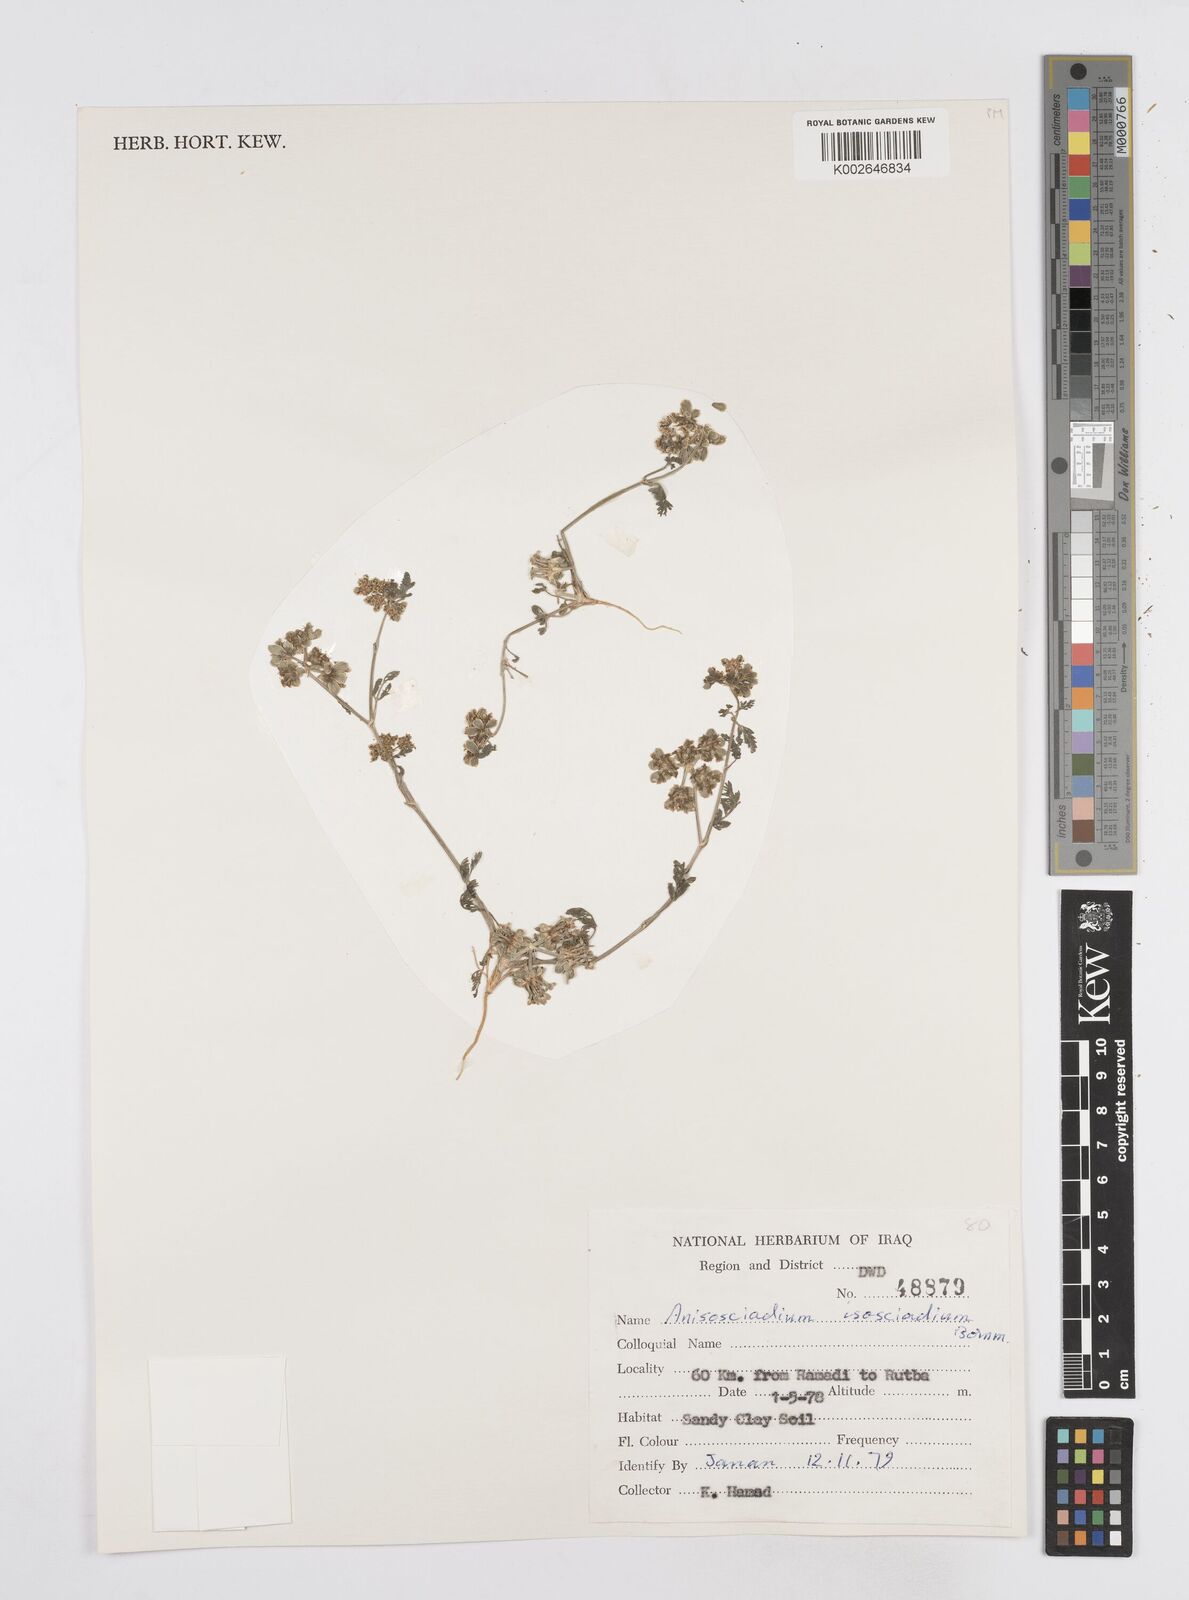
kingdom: Plantae
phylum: Tracheophyta
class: Magnoliopsida
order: Apiales
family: Apiaceae
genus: Anisosciadium
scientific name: Anisosciadium isosciadium
